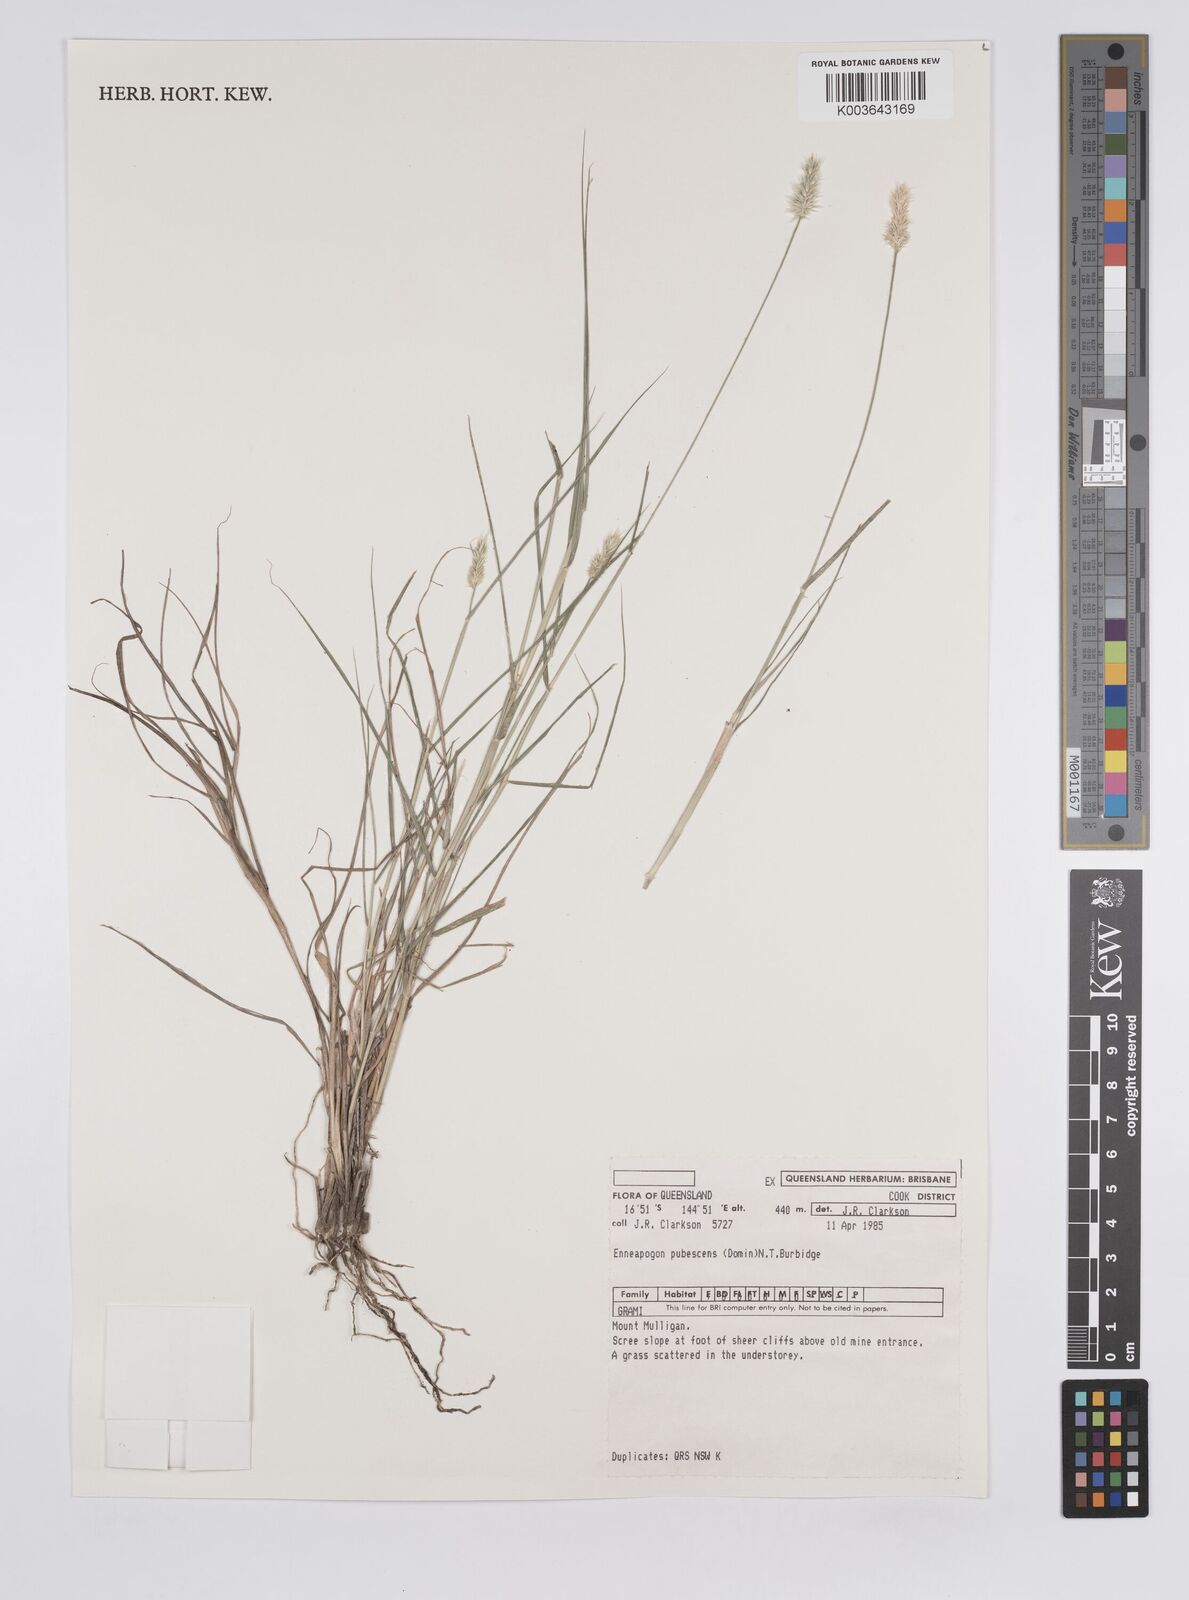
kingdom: Plantae
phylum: Tracheophyta
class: Liliopsida
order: Poales
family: Poaceae
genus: Enneapogon
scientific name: Enneapogon lindleyanus
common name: Conetop nineawn
